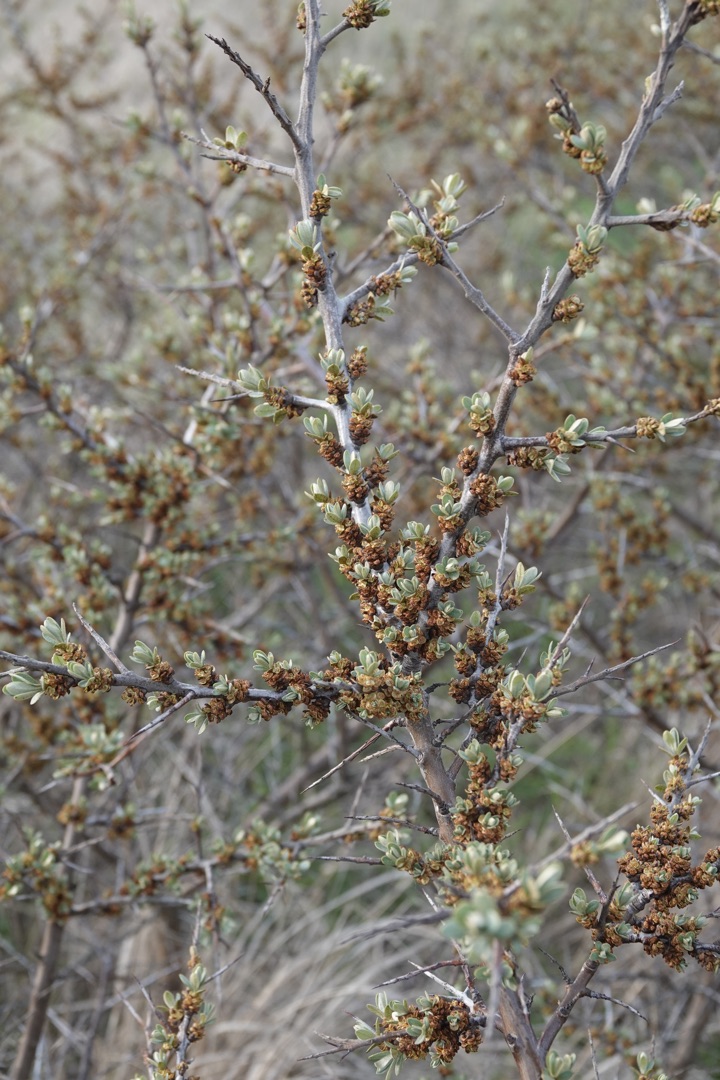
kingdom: Plantae
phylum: Tracheophyta
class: Magnoliopsida
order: Rosales
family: Elaeagnaceae
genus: Hippophae
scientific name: Hippophae rhamnoides
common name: Havtorn
